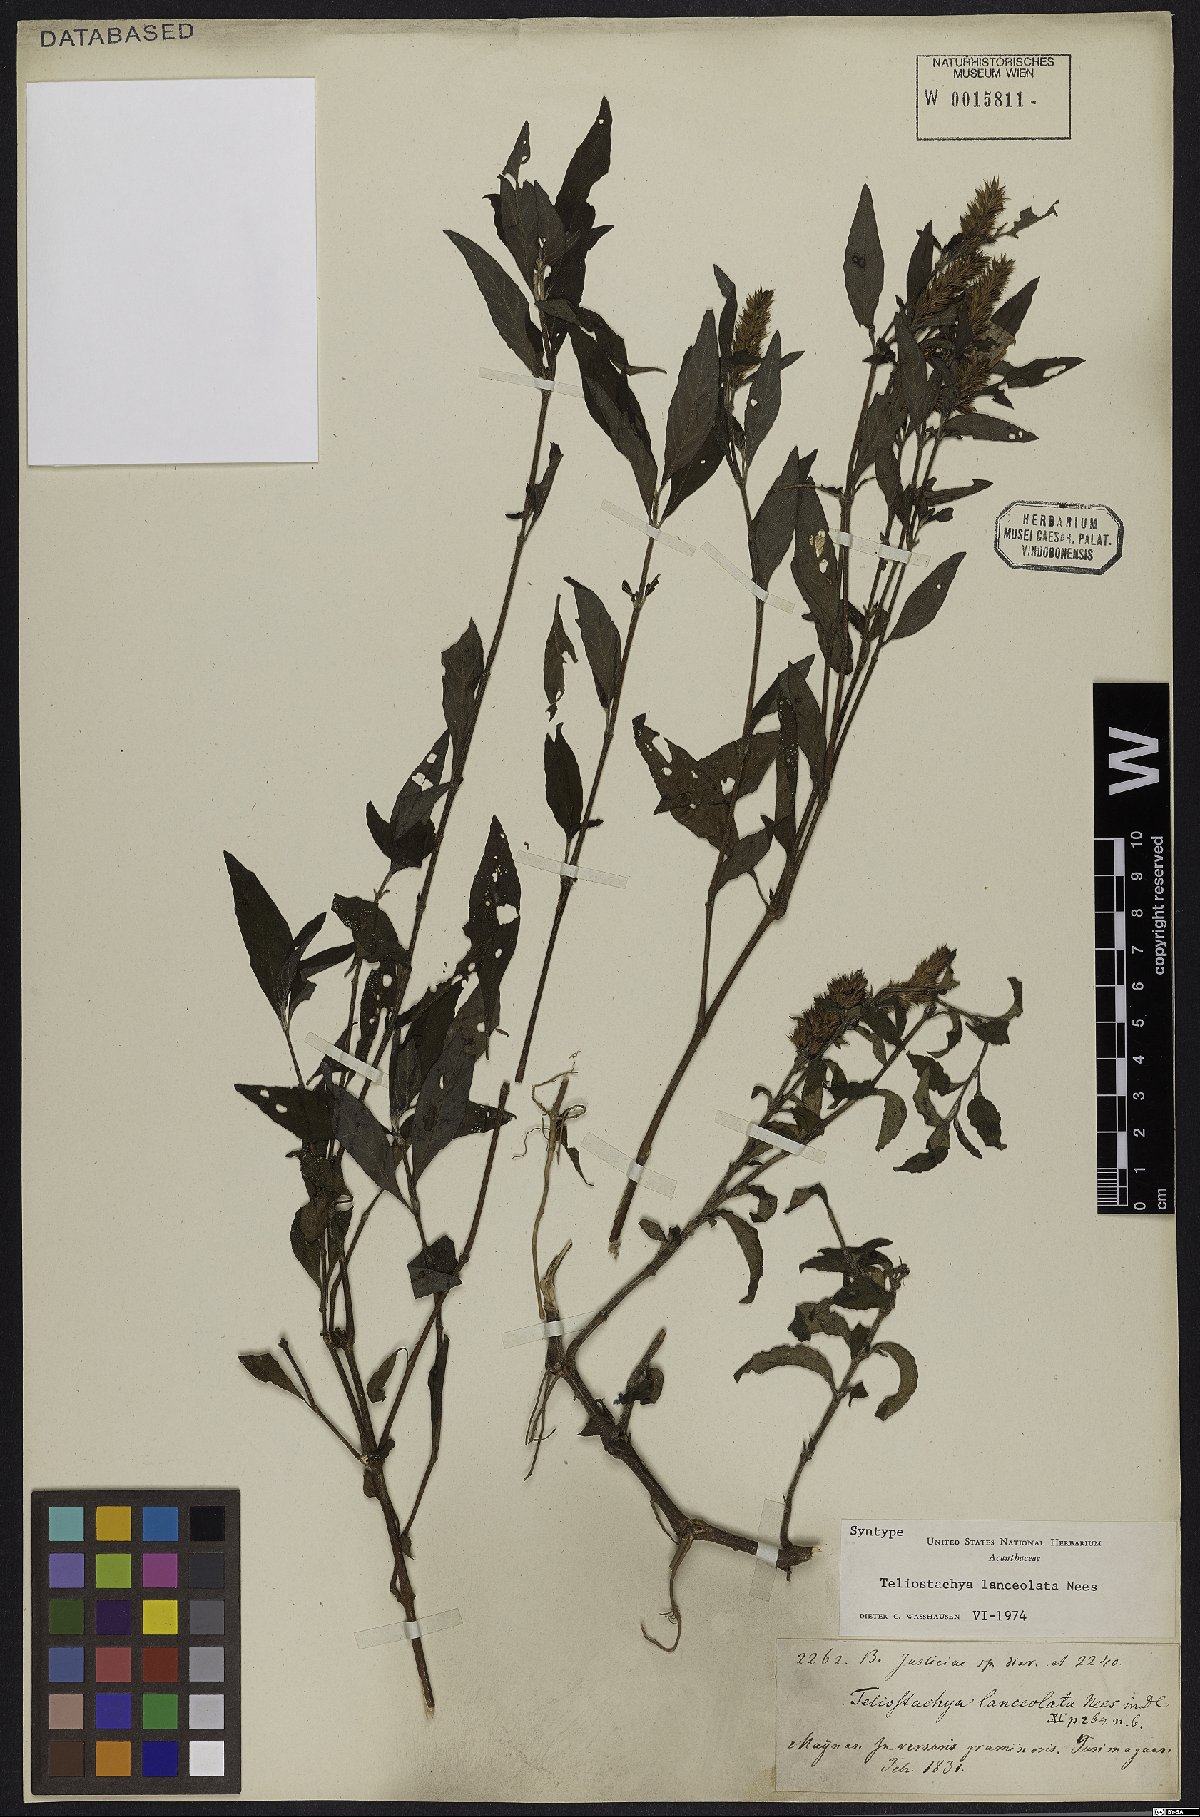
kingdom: Plantae
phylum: Tracheophyta
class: Magnoliopsida
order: Lamiales
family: Acanthaceae
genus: Lepidagathis
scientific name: Lepidagathis alopecuroidea
